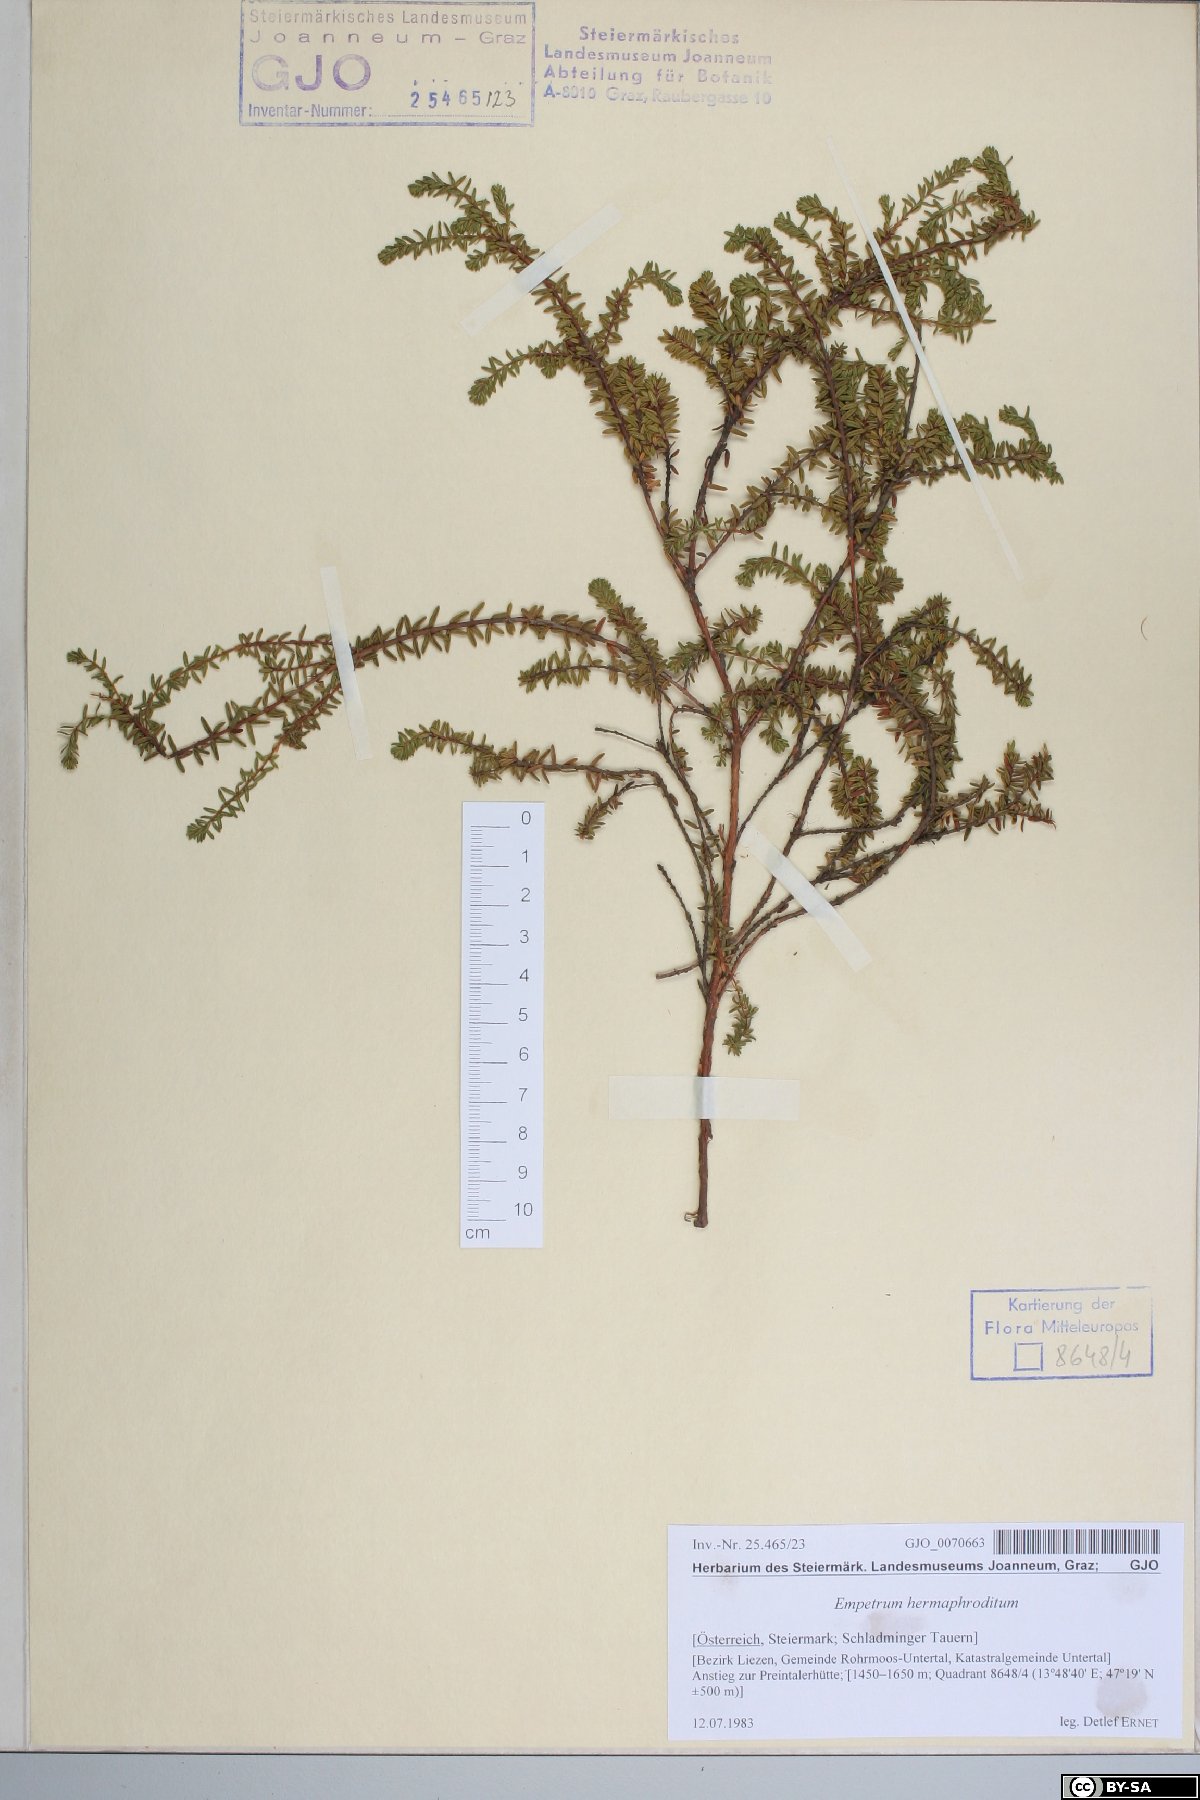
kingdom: Plantae
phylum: Tracheophyta
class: Magnoliopsida
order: Ericales
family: Ericaceae
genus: Empetrum
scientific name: Empetrum hermaphroditum
